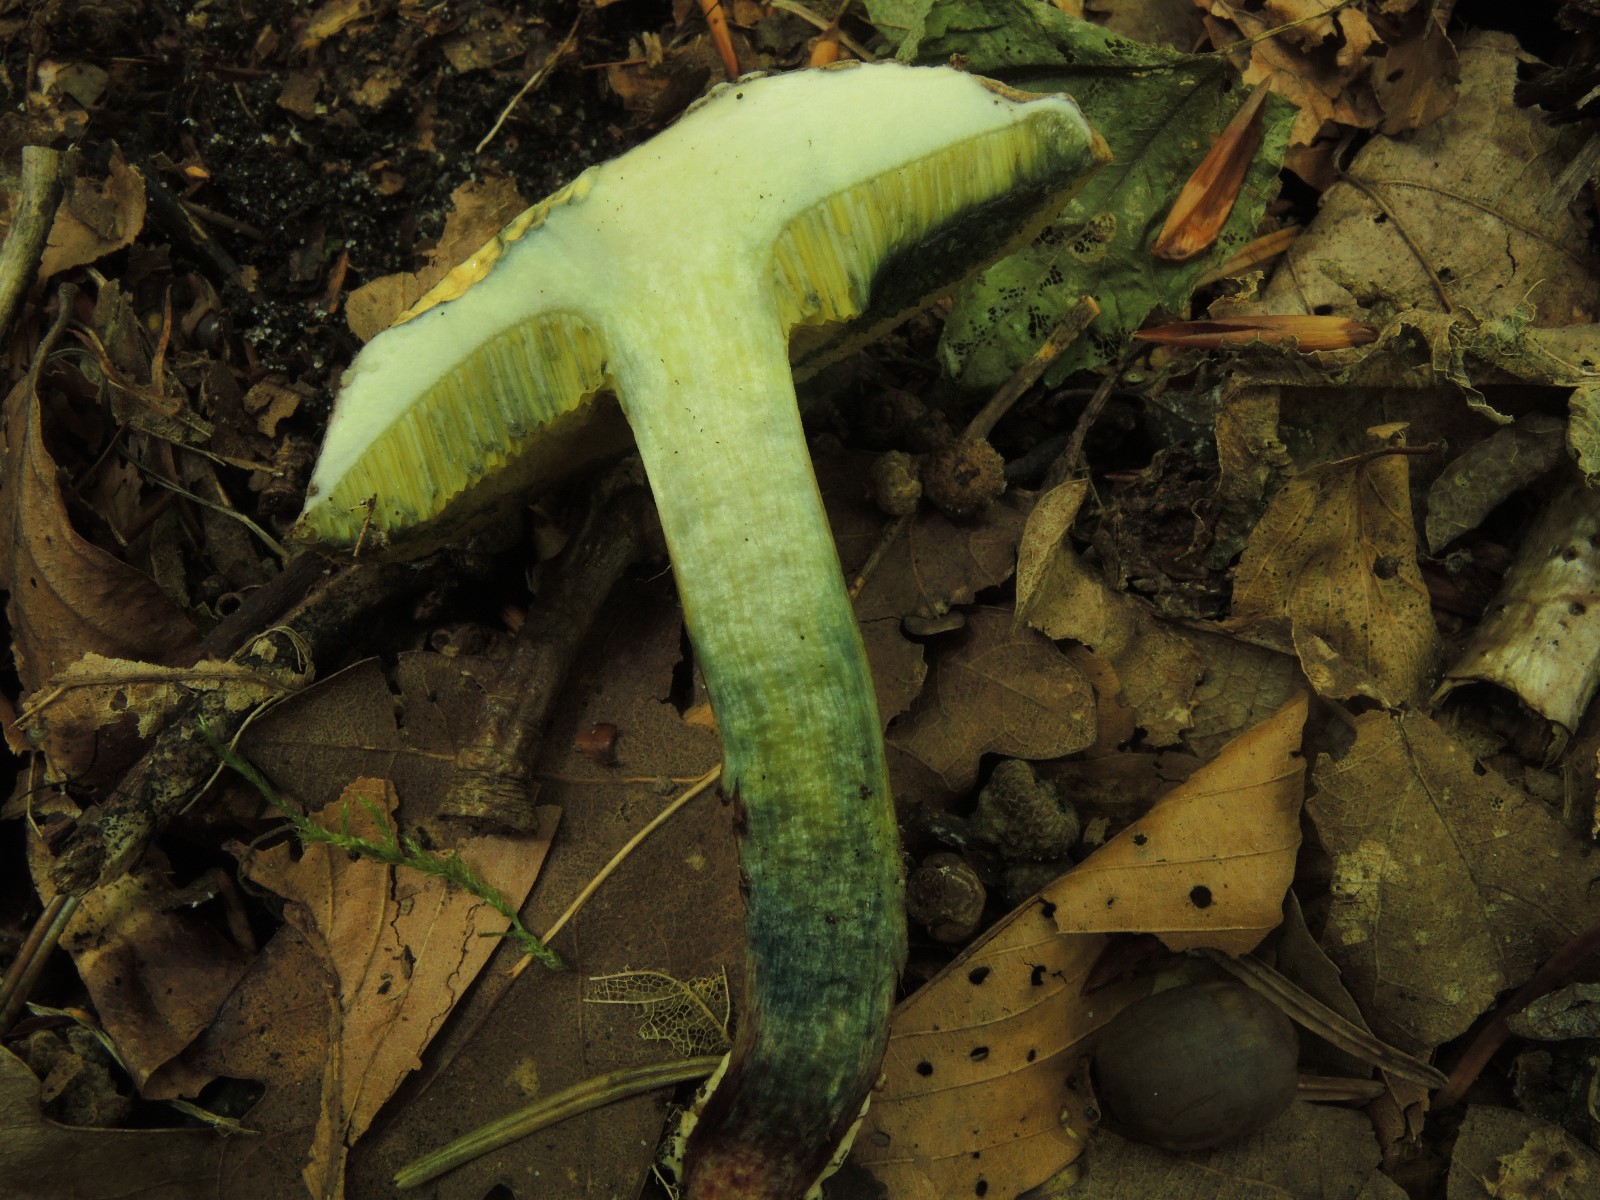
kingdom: Fungi
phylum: Basidiomycota
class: Agaricomycetes
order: Boletales
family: Boletaceae
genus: Xerocomellus
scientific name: Xerocomellus cisalpinus
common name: finsprukken rørhat
